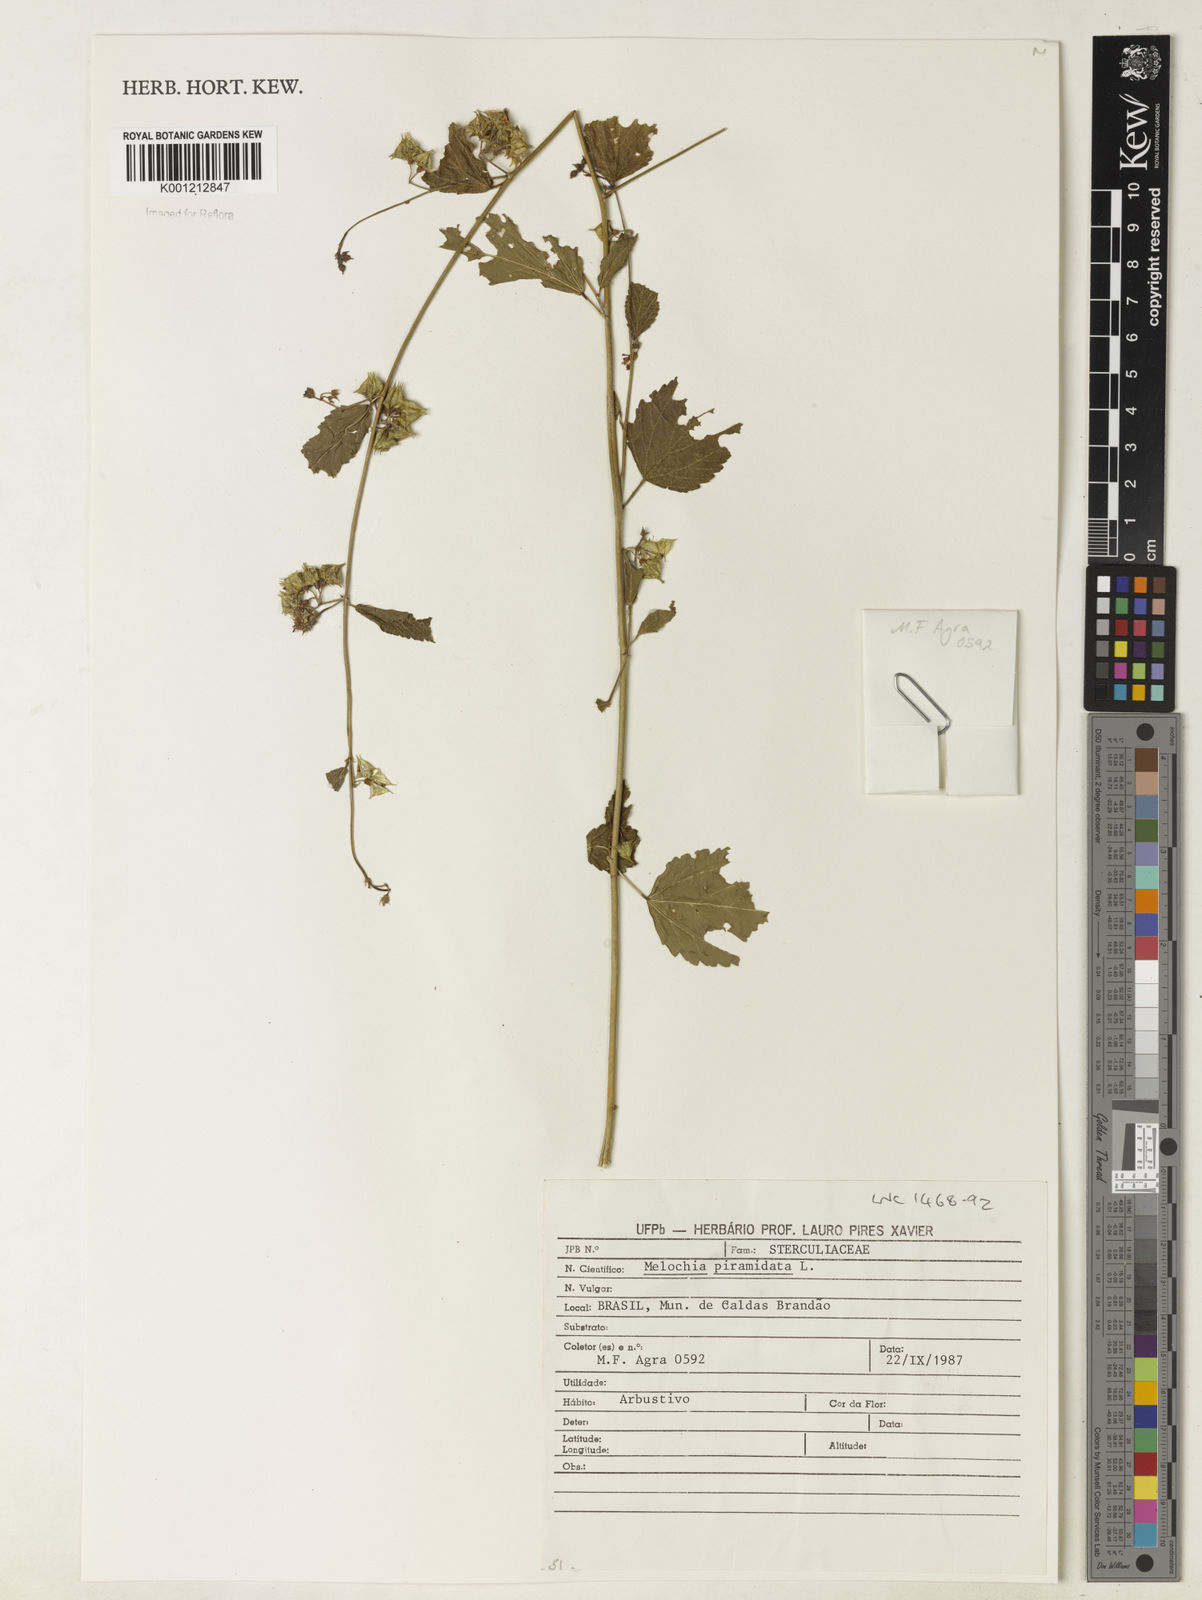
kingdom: Plantae
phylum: Tracheophyta
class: Magnoliopsida
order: Malvales
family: Malvaceae
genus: Melochia
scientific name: Melochia pyramidata
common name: Pyramidflower
